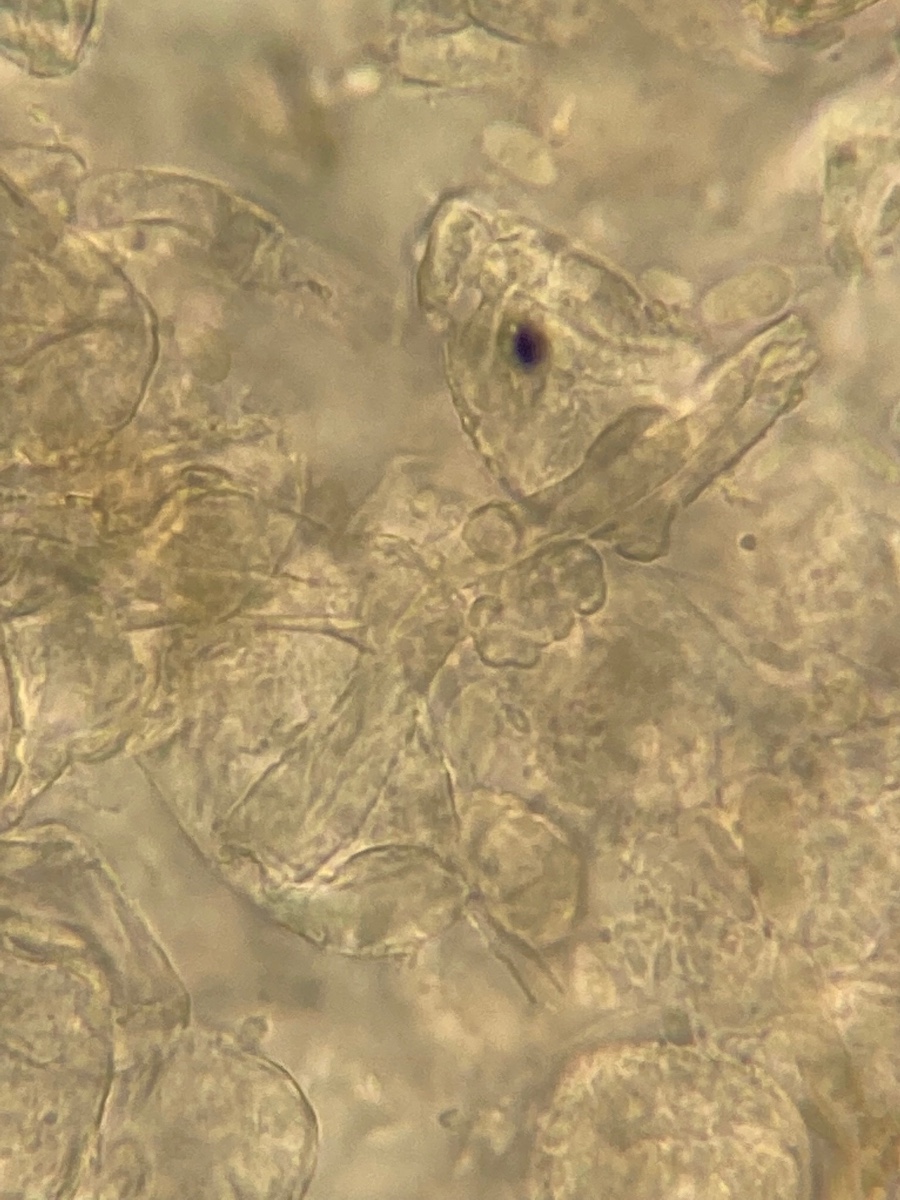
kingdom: Fungi
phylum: Ascomycota
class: Leotiomycetes
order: Helotiales
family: Erysiphaceae
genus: Erysiphe
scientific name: Erysiphe sedi
